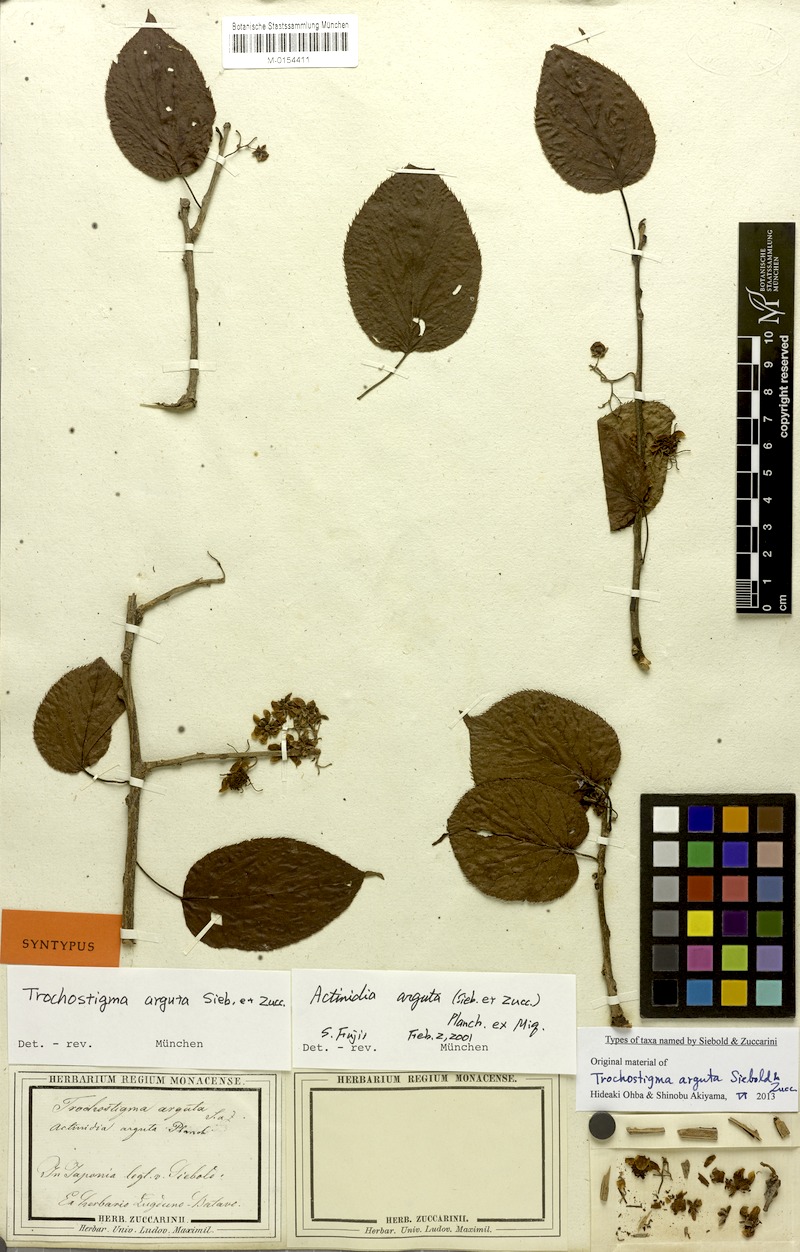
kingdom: Plantae
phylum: Tracheophyta
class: Magnoliopsida
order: Ericales
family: Actinidiaceae
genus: Actinidia
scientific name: Actinidia arguta
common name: Tara vine
